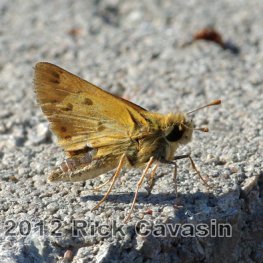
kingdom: Animalia
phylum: Arthropoda
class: Insecta
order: Lepidoptera
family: Hesperiidae
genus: Hylephila
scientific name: Hylephila phyleus
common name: Fiery Skipper
